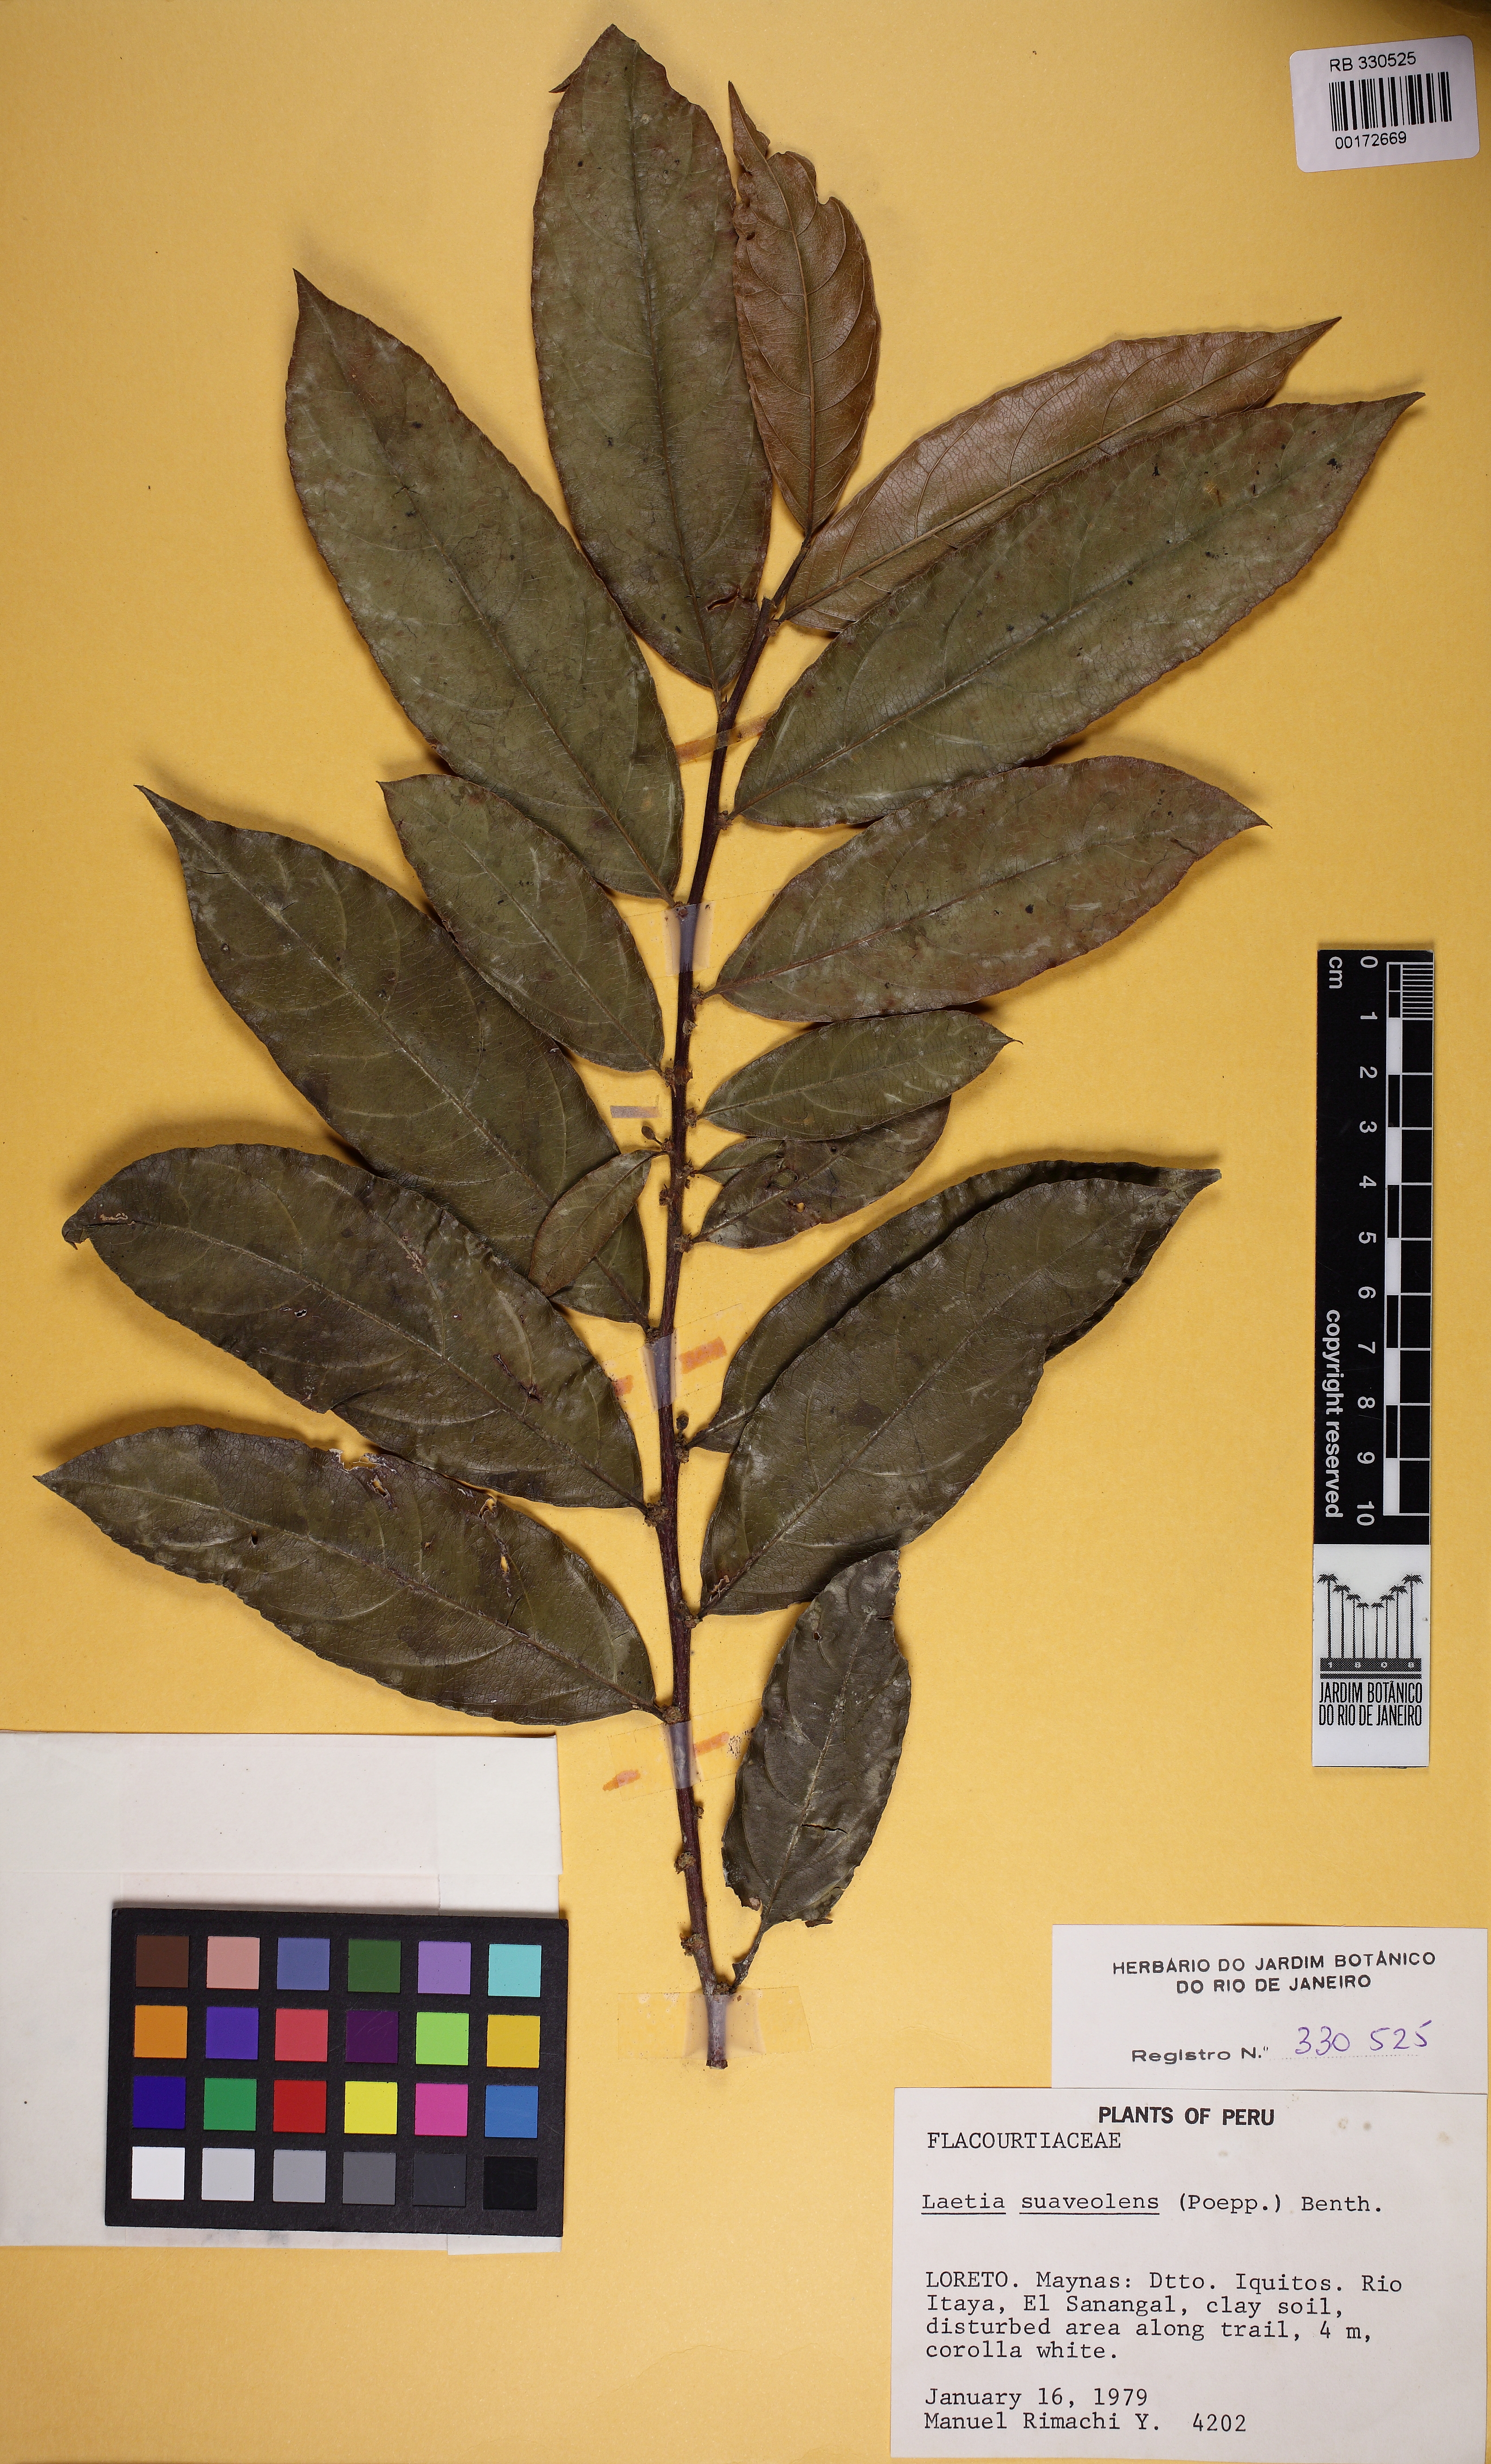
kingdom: Plantae
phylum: Tracheophyta
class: Magnoliopsida
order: Malpighiales
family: Salicaceae
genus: Casearia
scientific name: Casearia suaveolens
